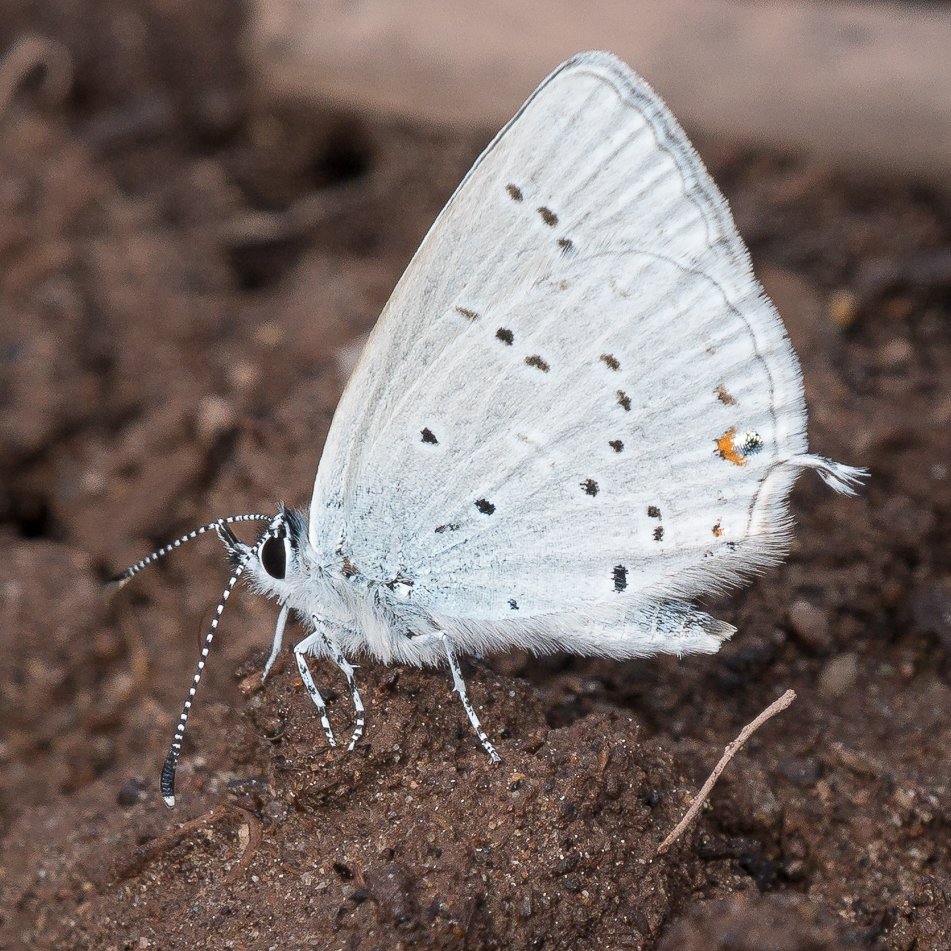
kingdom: Animalia
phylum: Arthropoda
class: Insecta
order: Lepidoptera
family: Lycaenidae
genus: Elkalyce
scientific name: Elkalyce amyntula
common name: Western Tailed-Blue
